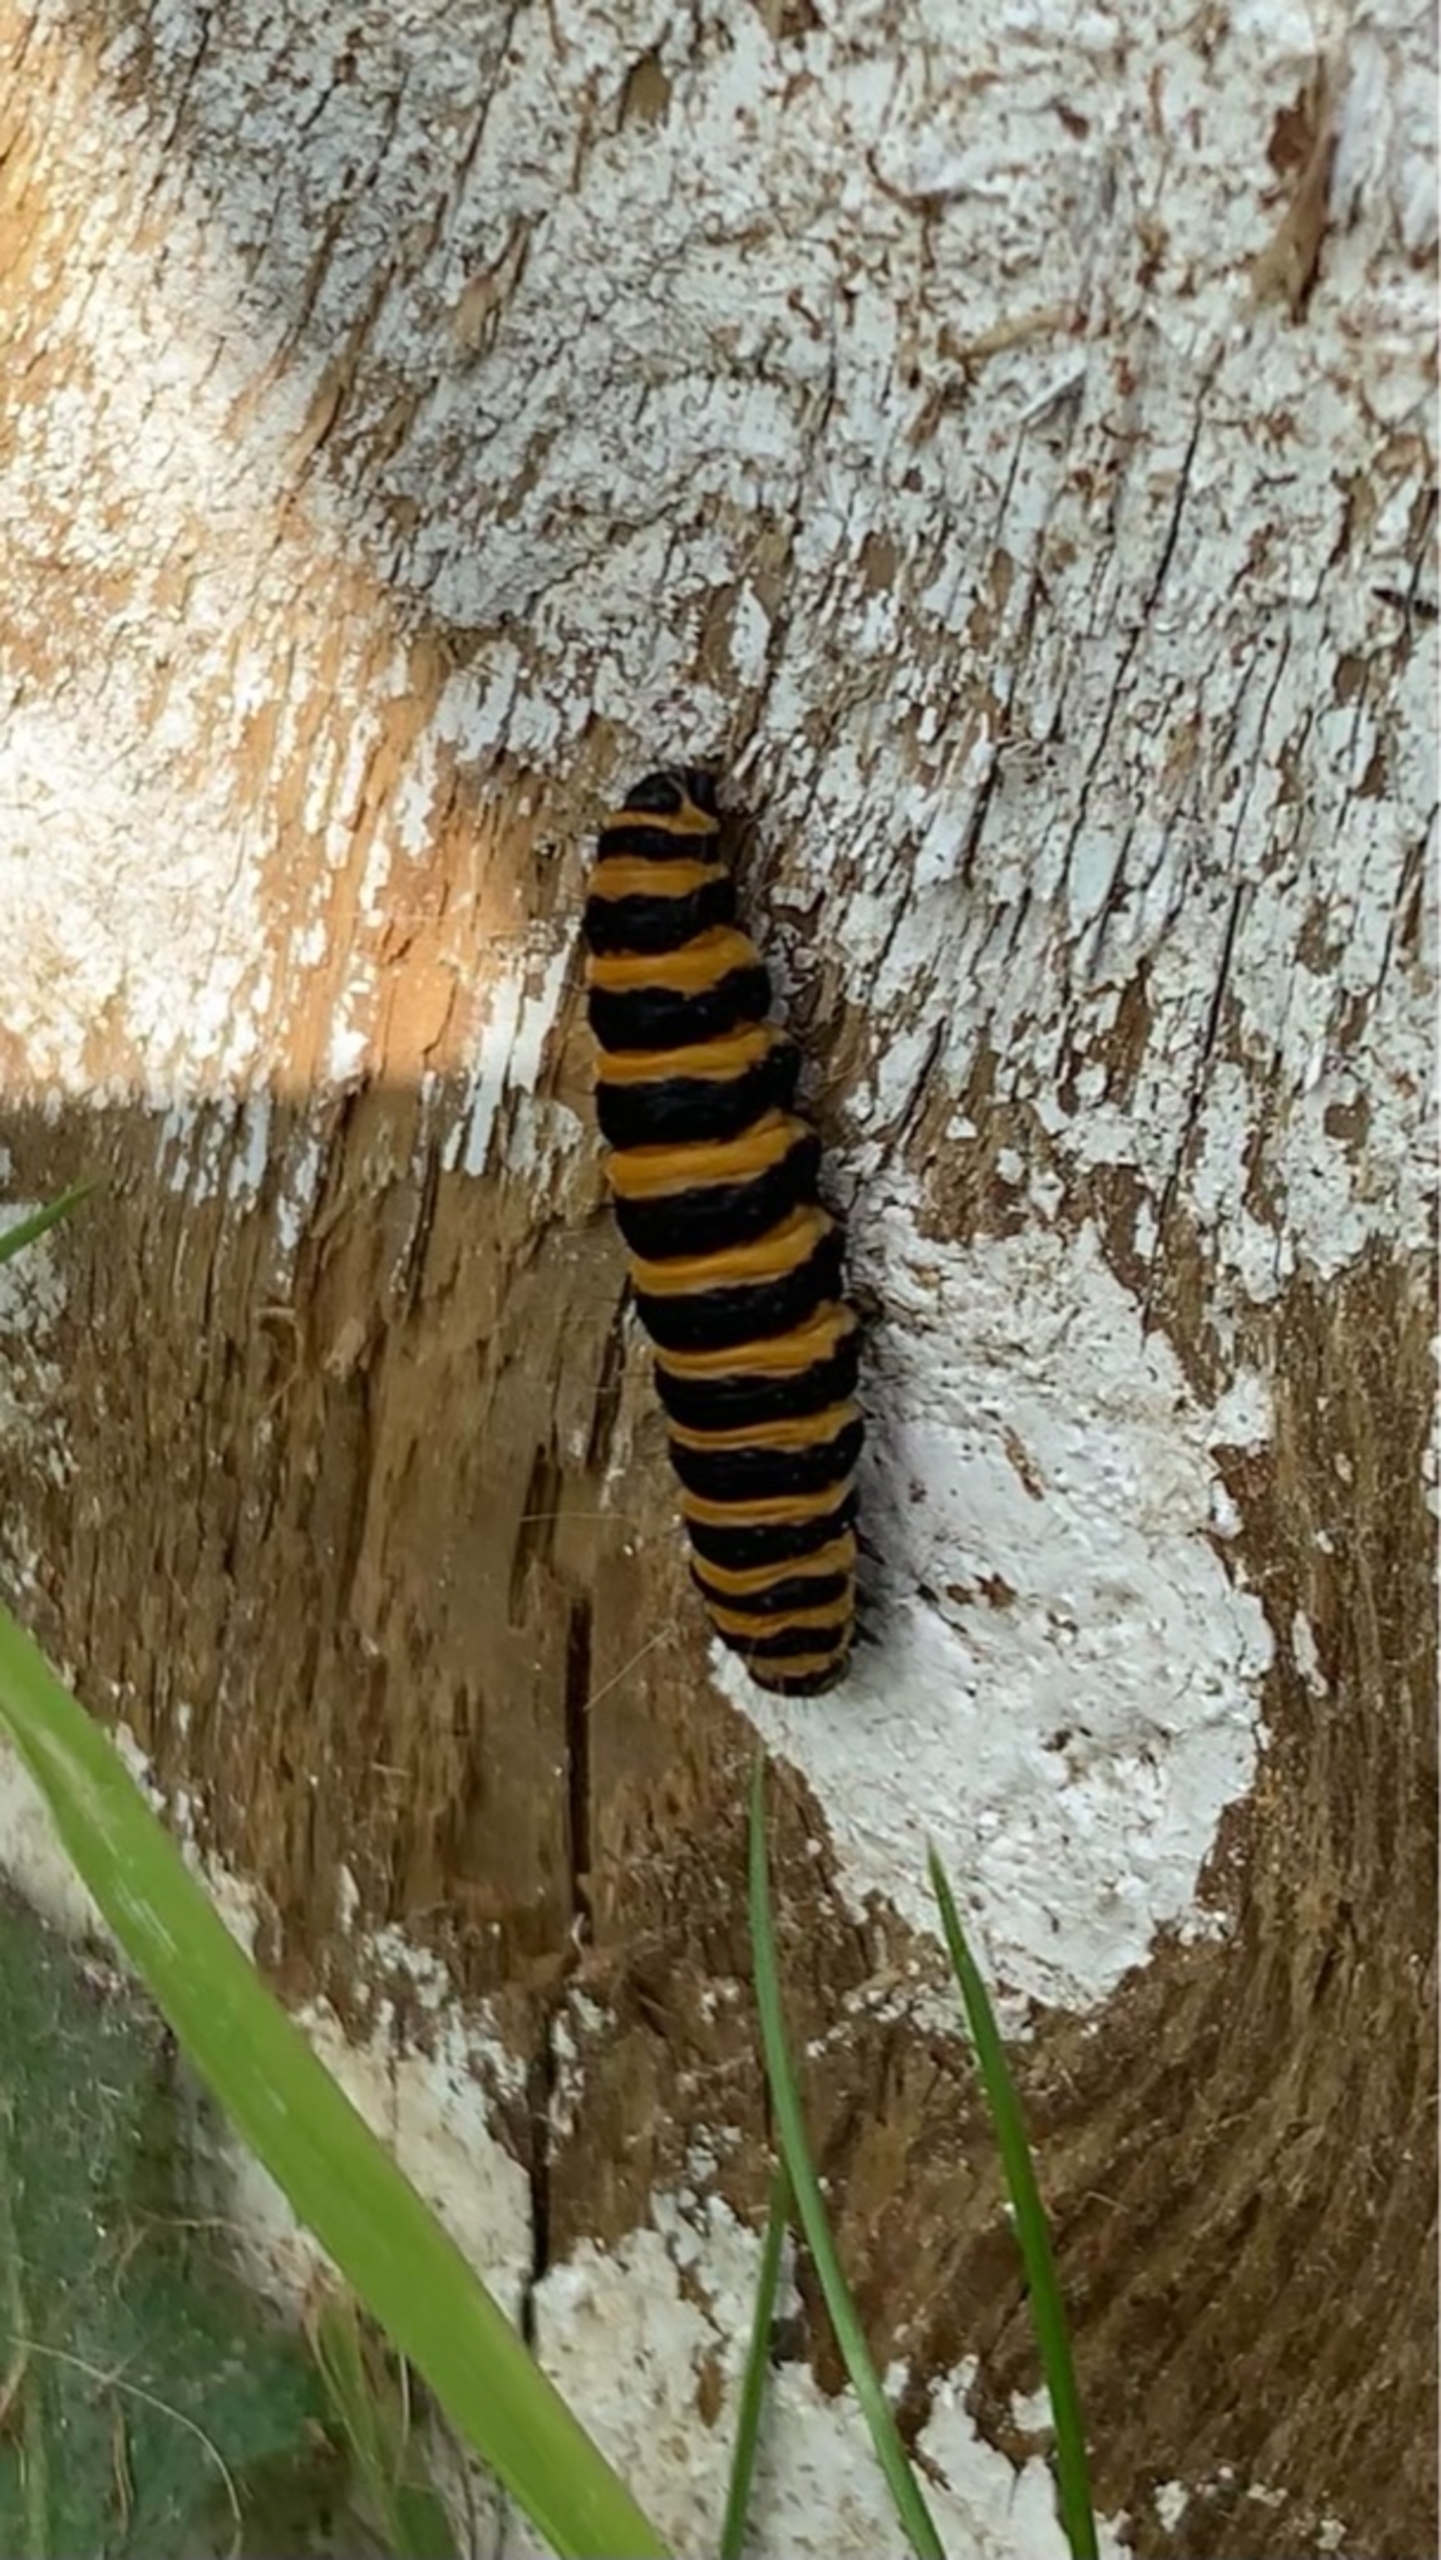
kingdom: Animalia
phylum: Arthropoda
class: Insecta
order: Lepidoptera
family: Erebidae
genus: Tyria
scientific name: Tyria jacobaeae
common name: Blodplet
